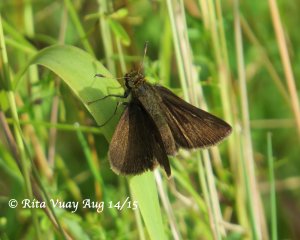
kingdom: Animalia
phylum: Arthropoda
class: Insecta
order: Lepidoptera
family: Hesperiidae
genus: Euphyes
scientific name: Euphyes vestris
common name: Dun Skipper
